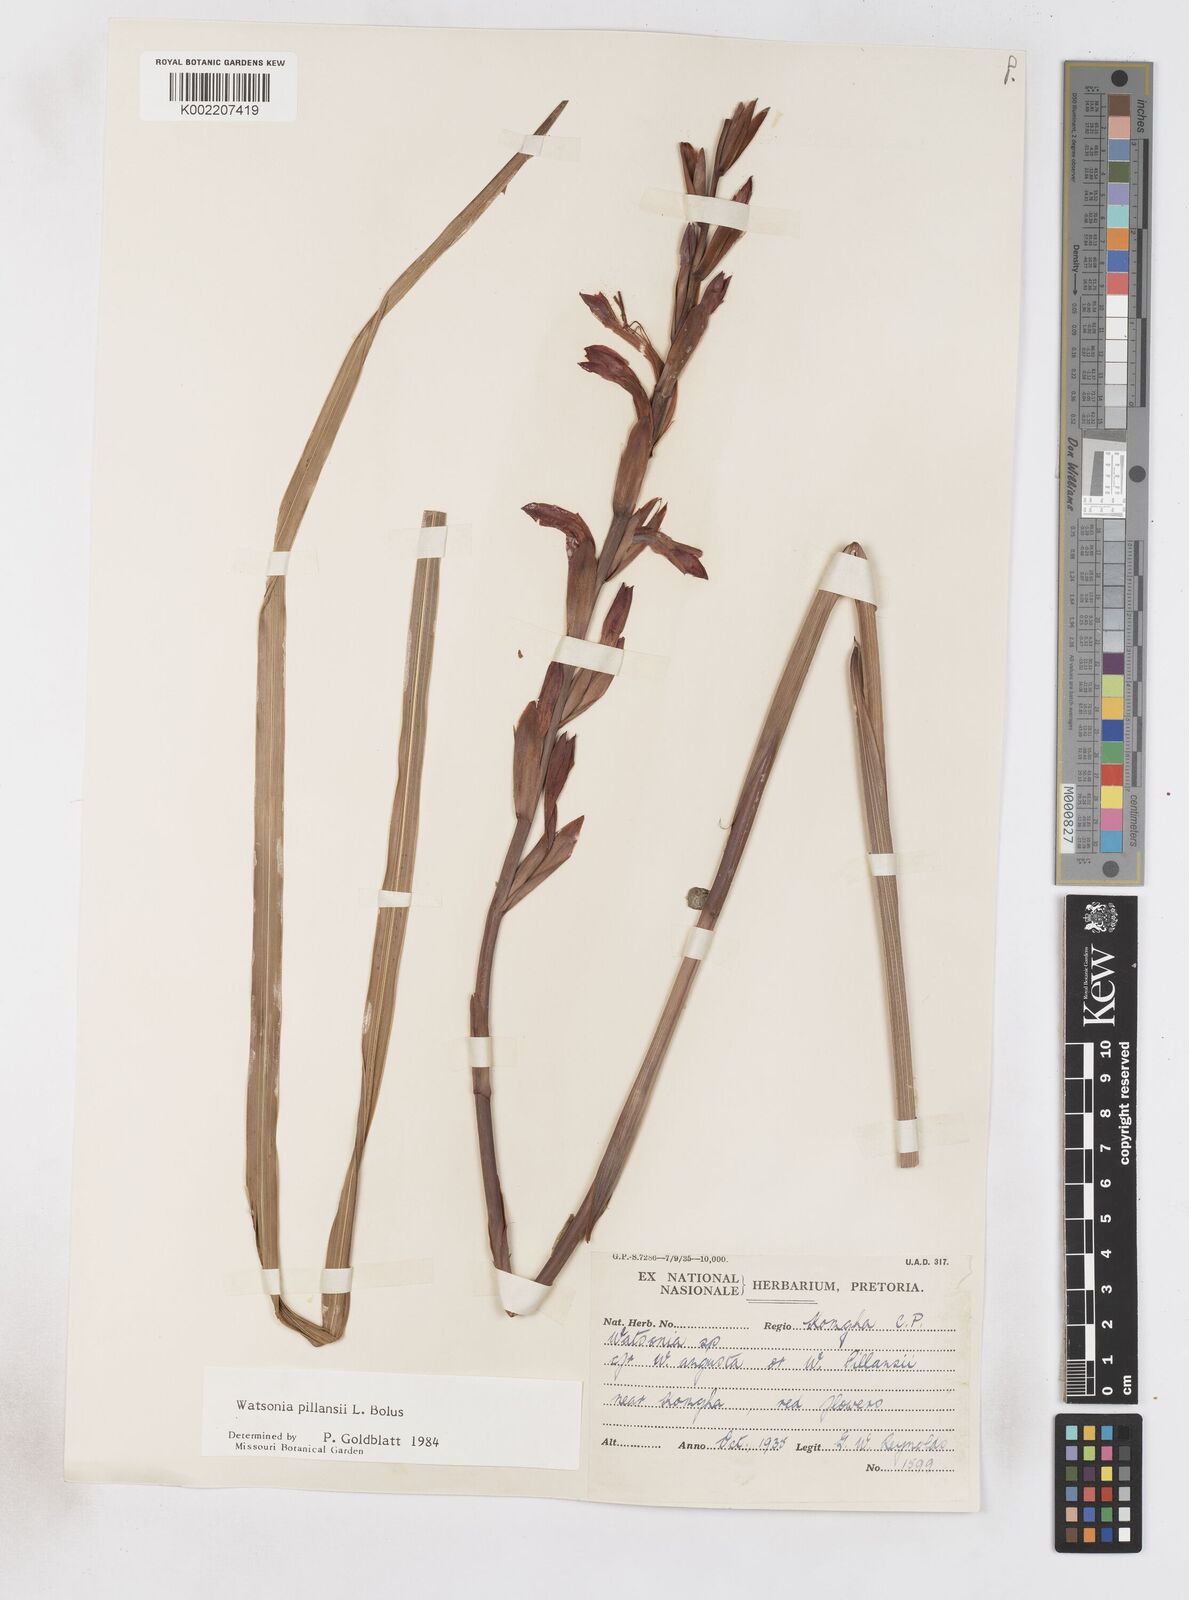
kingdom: Plantae
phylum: Tracheophyta
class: Liliopsida
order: Asparagales
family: Iridaceae
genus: Watsonia
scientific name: Watsonia pillansii
